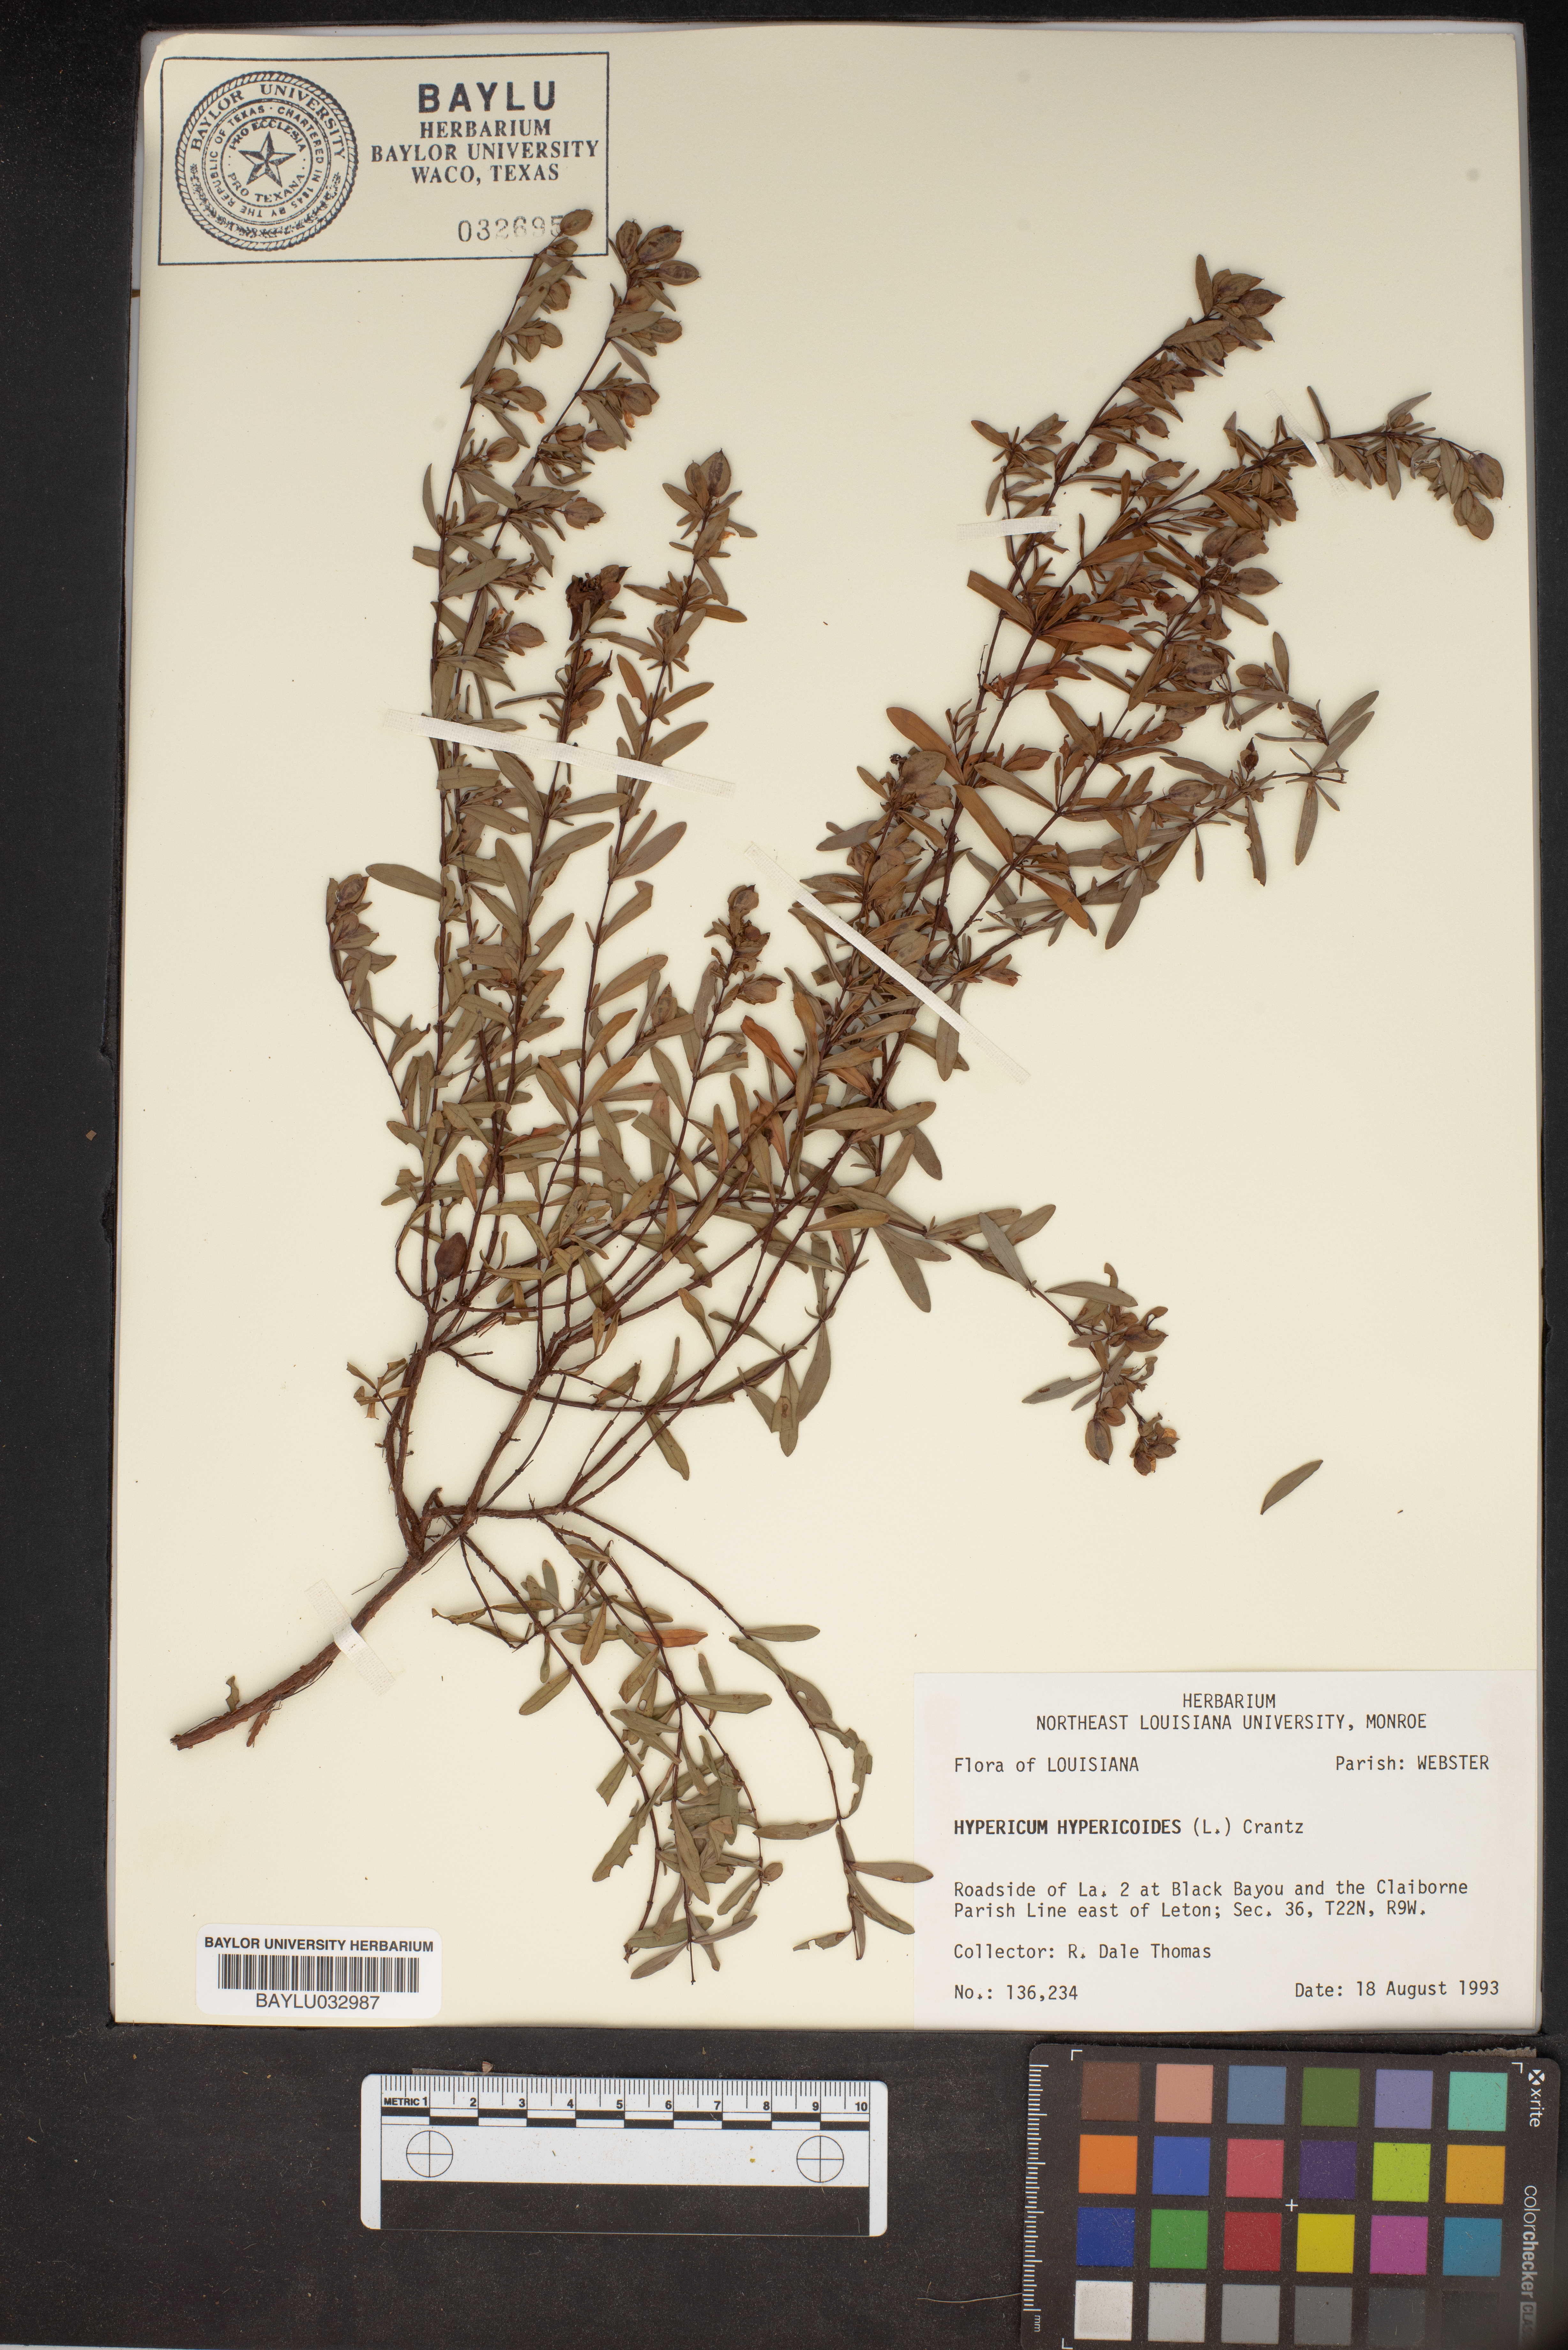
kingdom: Plantae
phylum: Tracheophyta
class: Magnoliopsida
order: Malpighiales
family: Hypericaceae
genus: Hypericum
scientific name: Hypericum hypericoides
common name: St. andrew's cross
